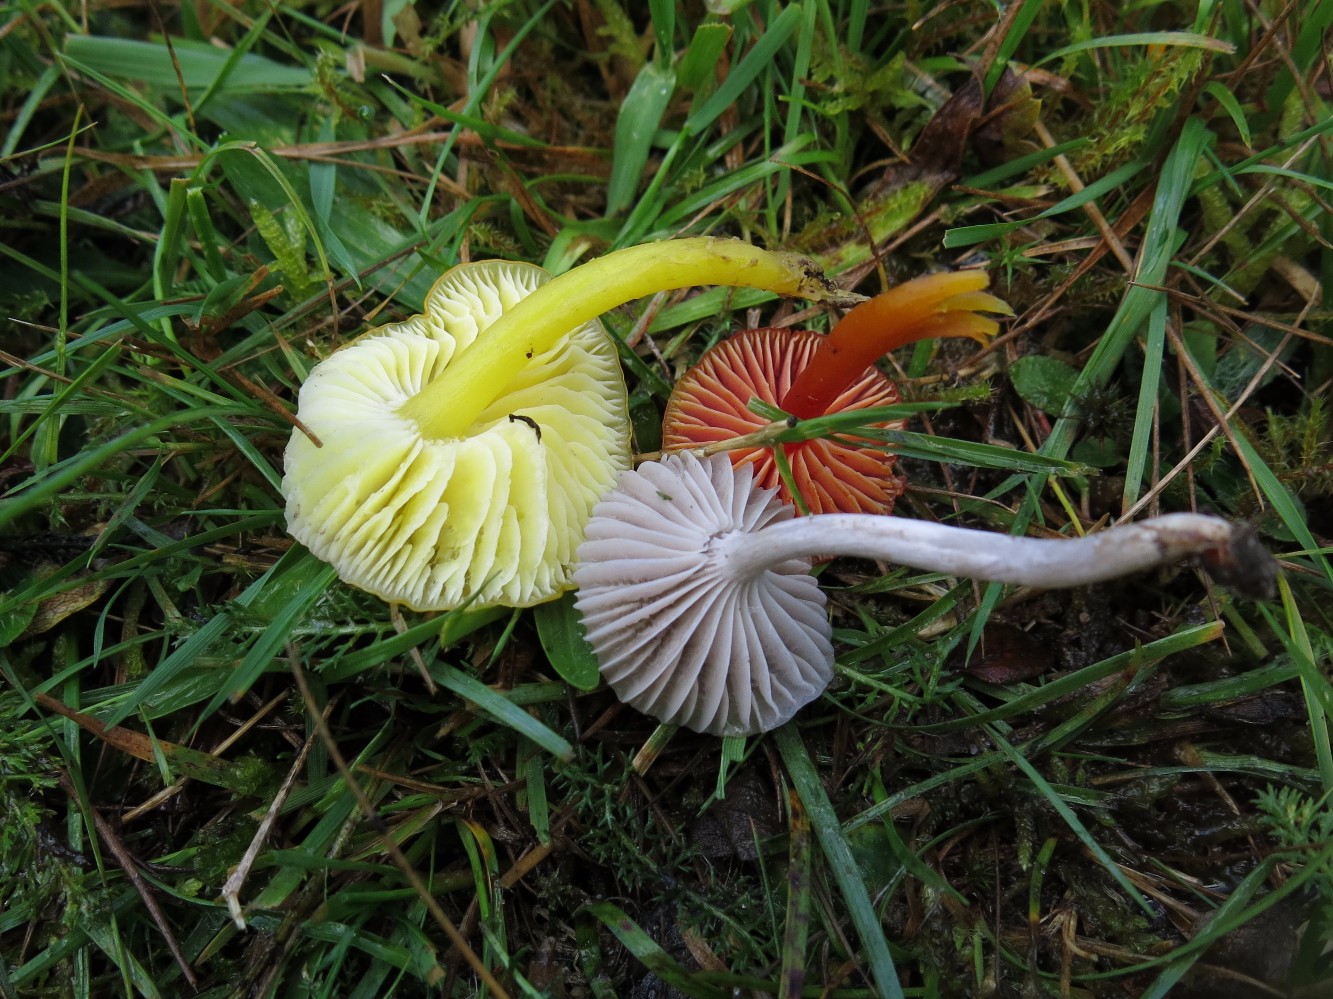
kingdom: Fungi
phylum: Basidiomycota
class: Agaricomycetes
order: Agaricales
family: Hygrophoraceae
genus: Cuphophyllus
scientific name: Cuphophyllus flavipes
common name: gulfodet vokshat
